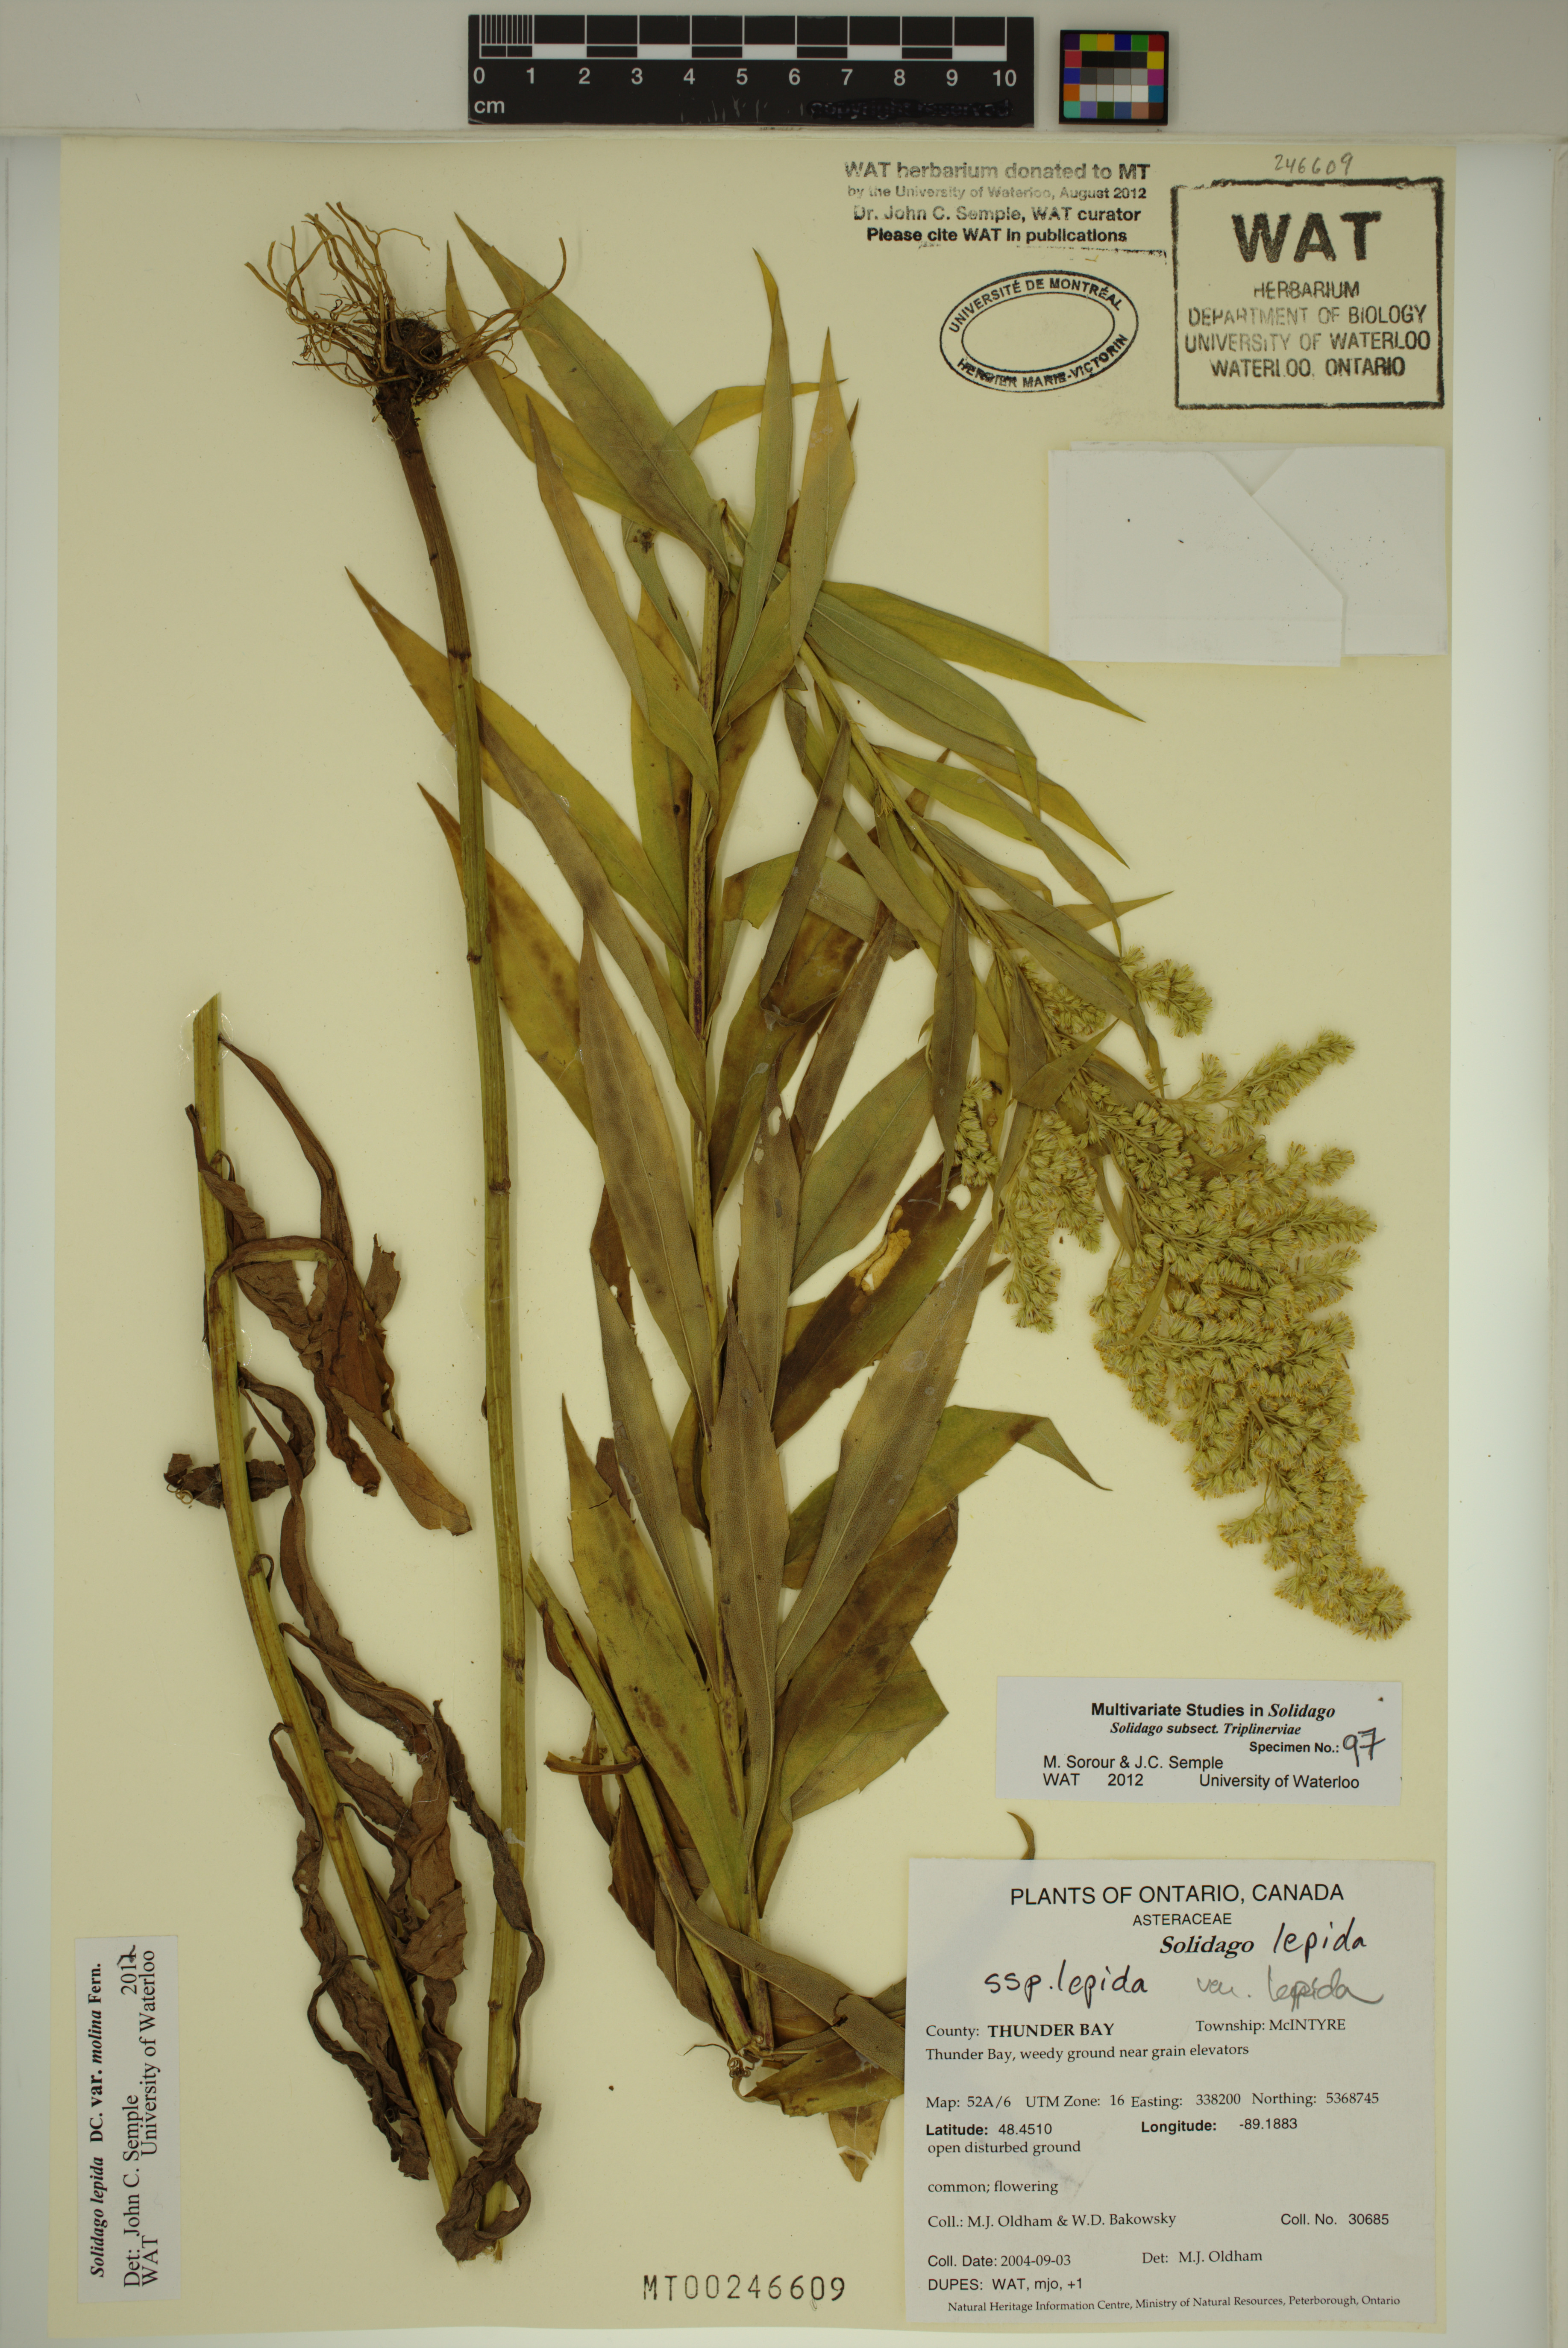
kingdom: Plantae
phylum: Tracheophyta
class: Magnoliopsida
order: Asterales
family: Asteraceae
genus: Solidago
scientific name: Solidago fallax
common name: Big-toothed canada goldenrod
